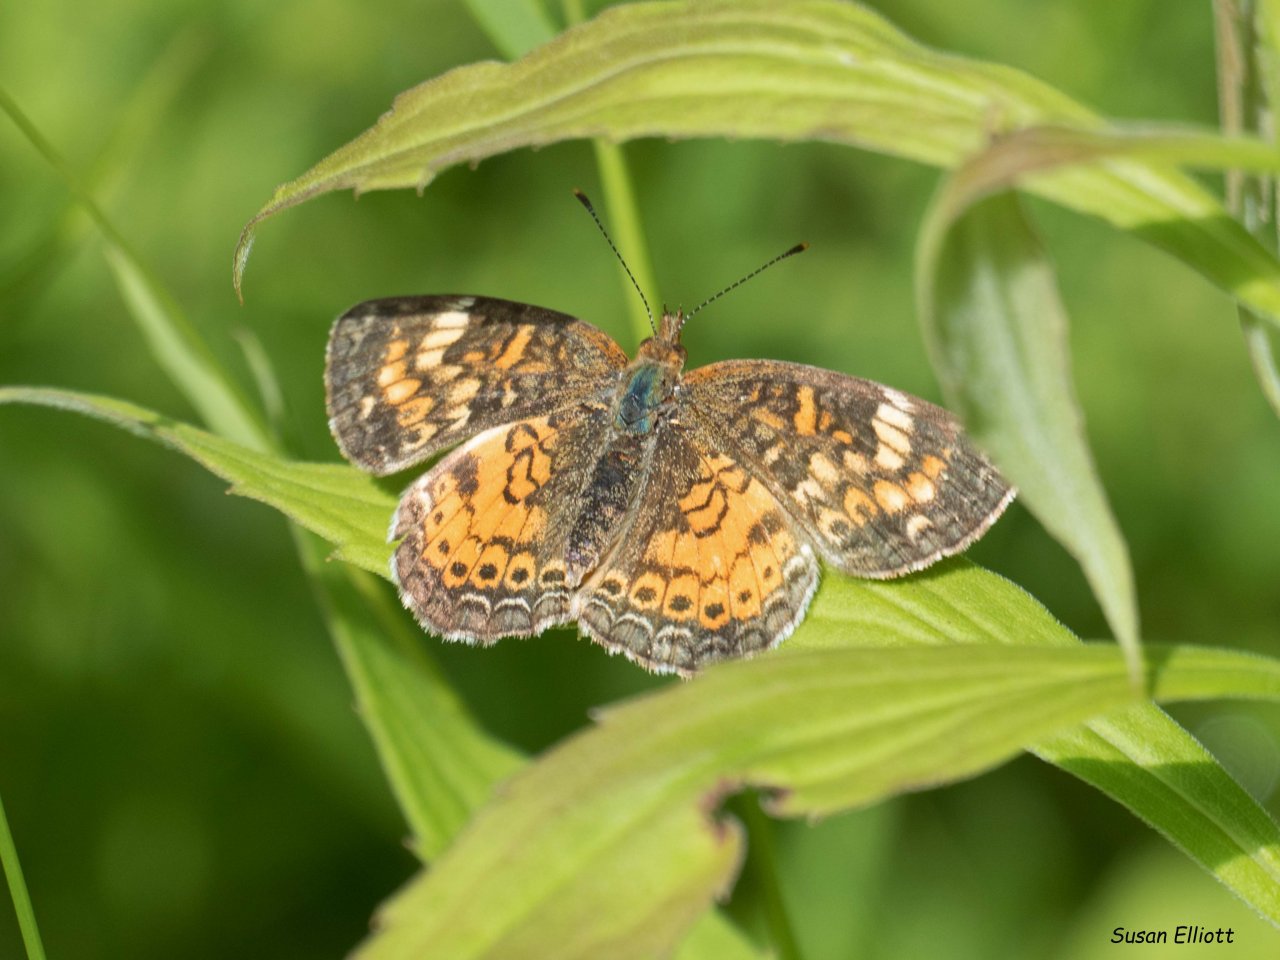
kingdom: Animalia
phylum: Arthropoda
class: Insecta
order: Lepidoptera
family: Nymphalidae
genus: Phyciodes
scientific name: Phyciodes tharos
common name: Pearl Crescent
